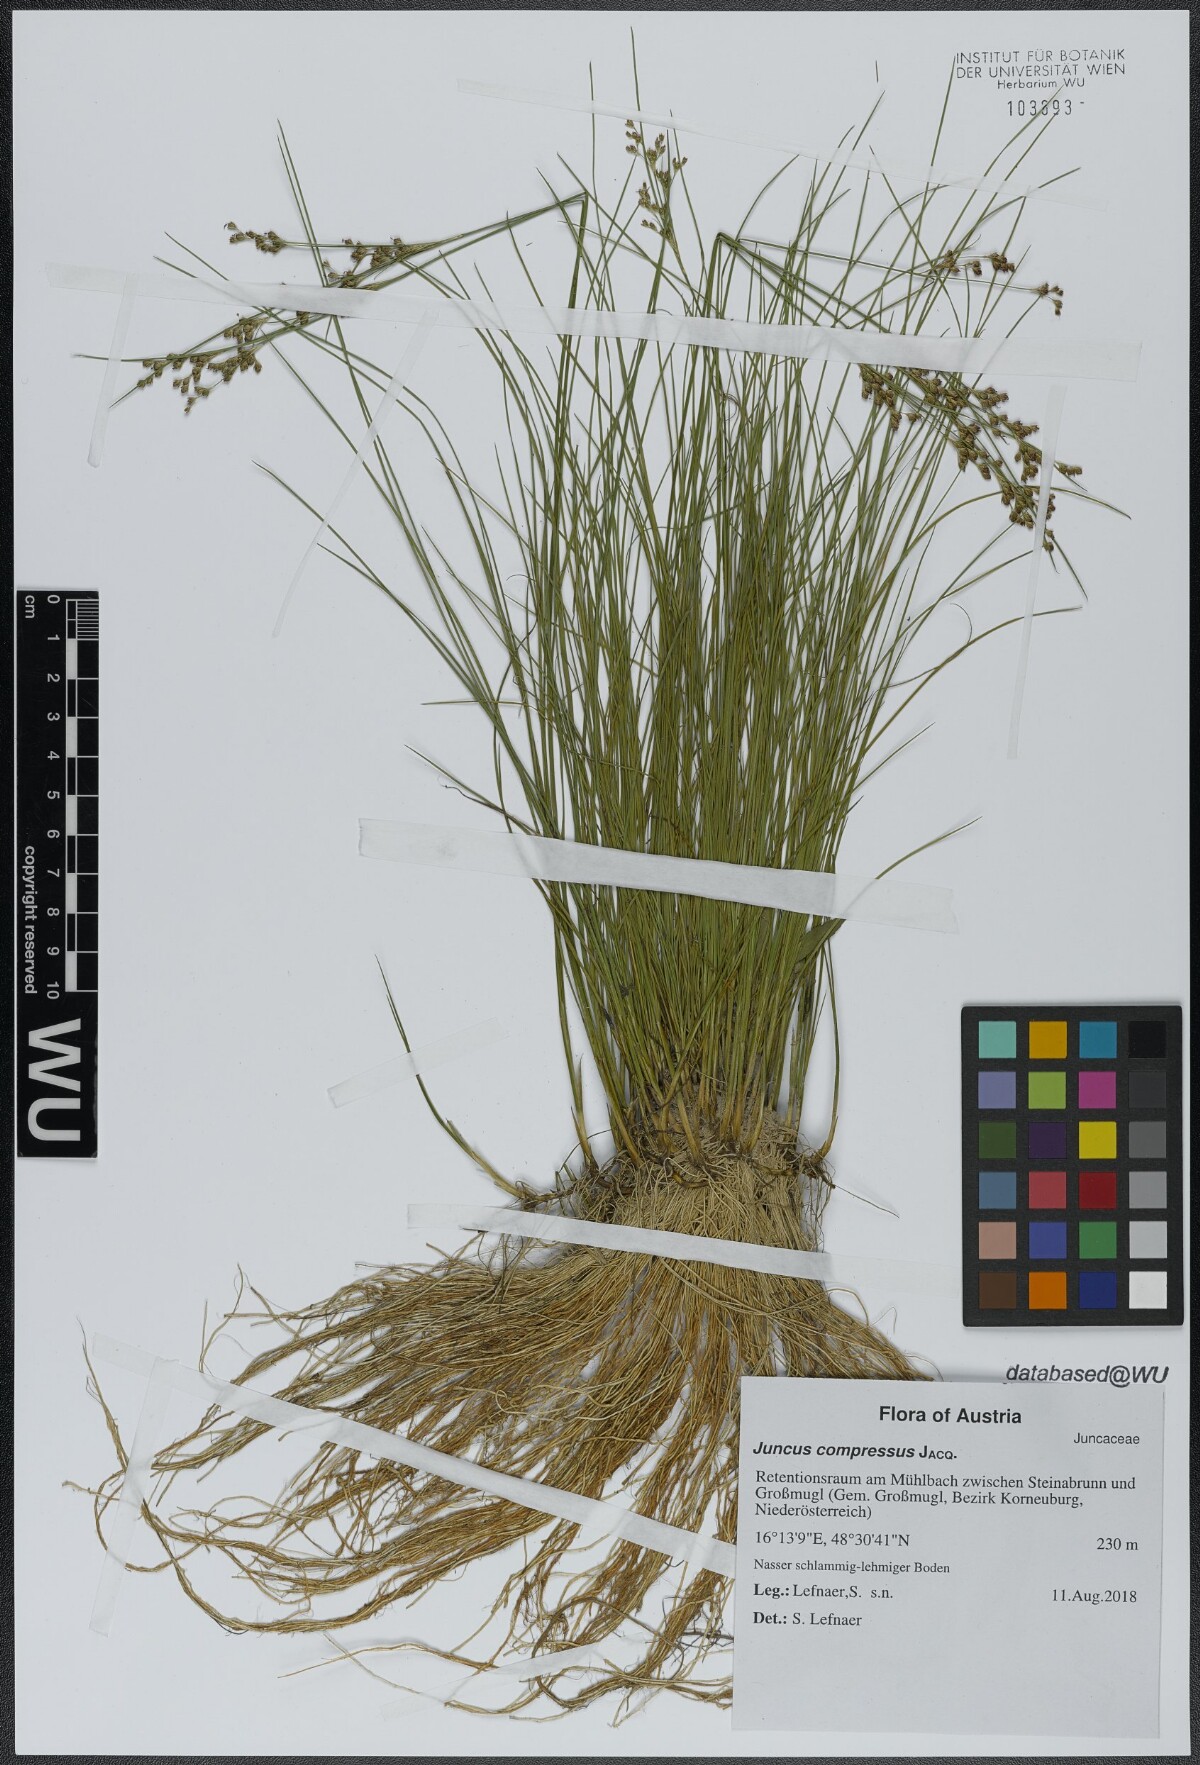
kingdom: Plantae
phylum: Tracheophyta
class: Liliopsida
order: Poales
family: Juncaceae
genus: Juncus
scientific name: Juncus compressus
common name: Round-fruited rush
